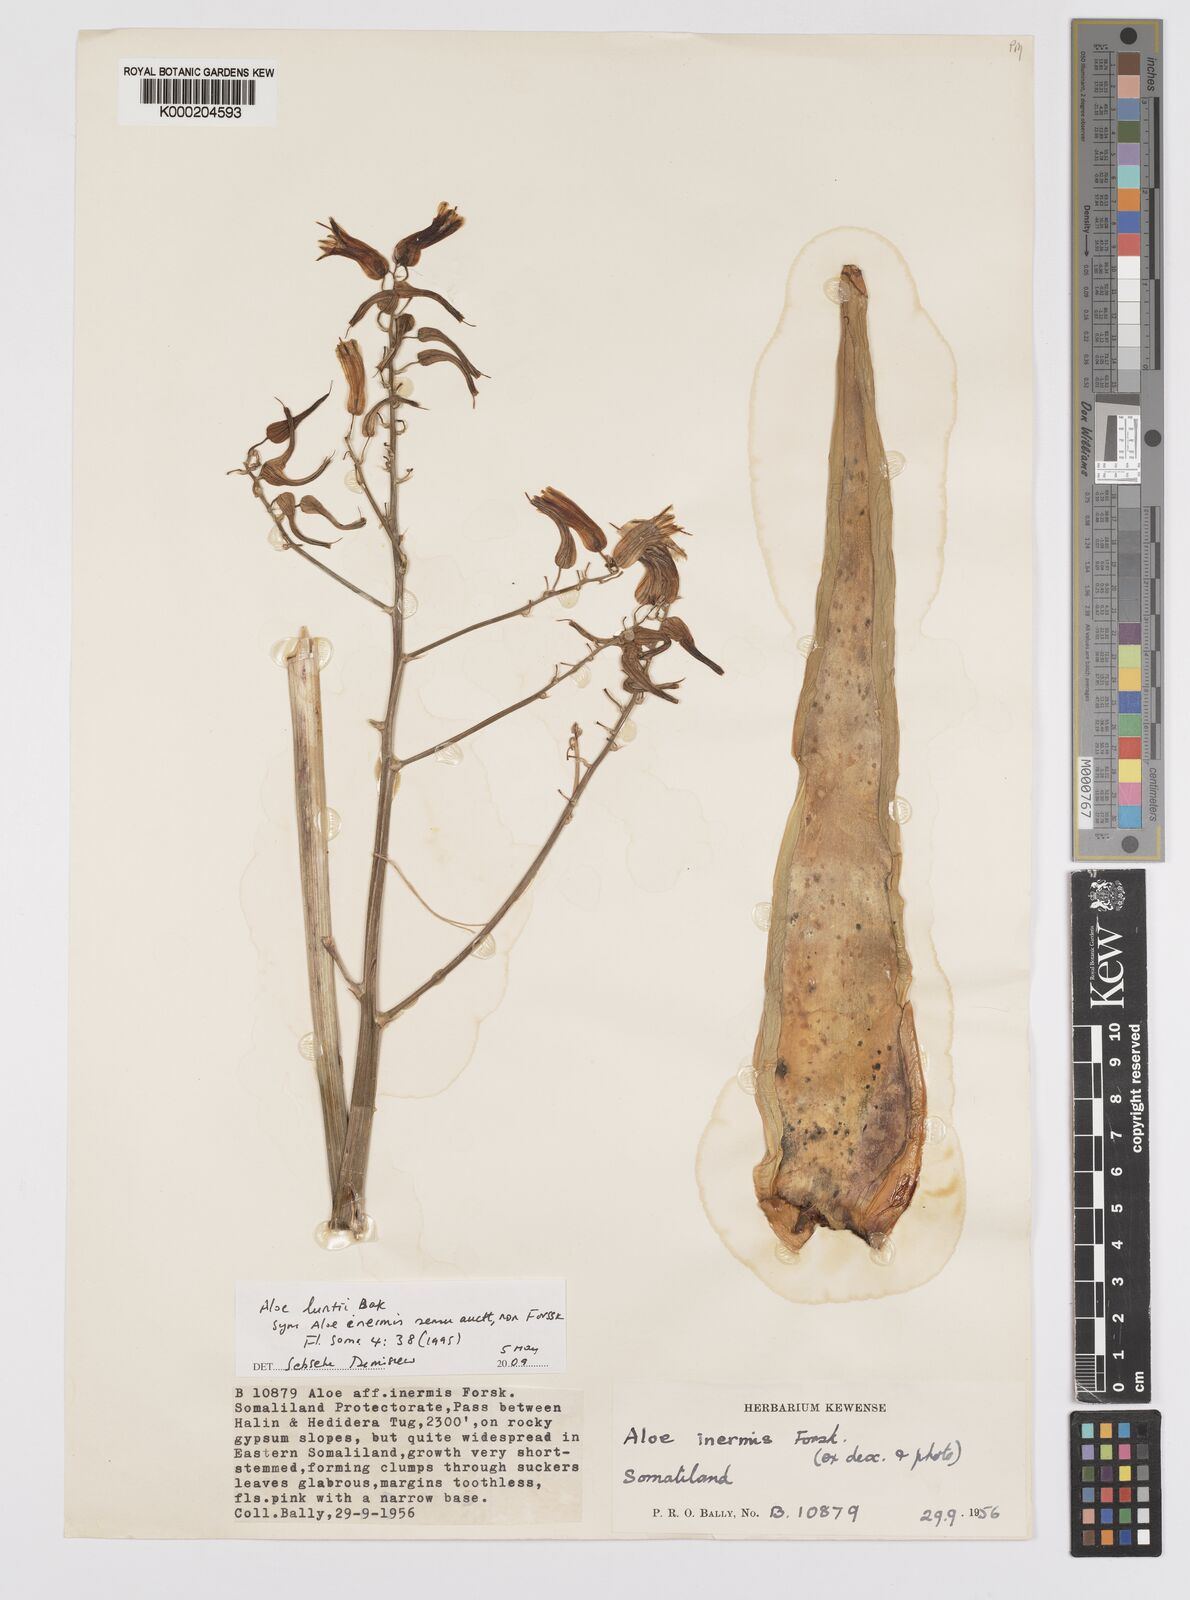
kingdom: Plantae
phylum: Tracheophyta
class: Liliopsida
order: Asparagales
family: Asphodelaceae
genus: Aloe
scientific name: Aloe luntii
